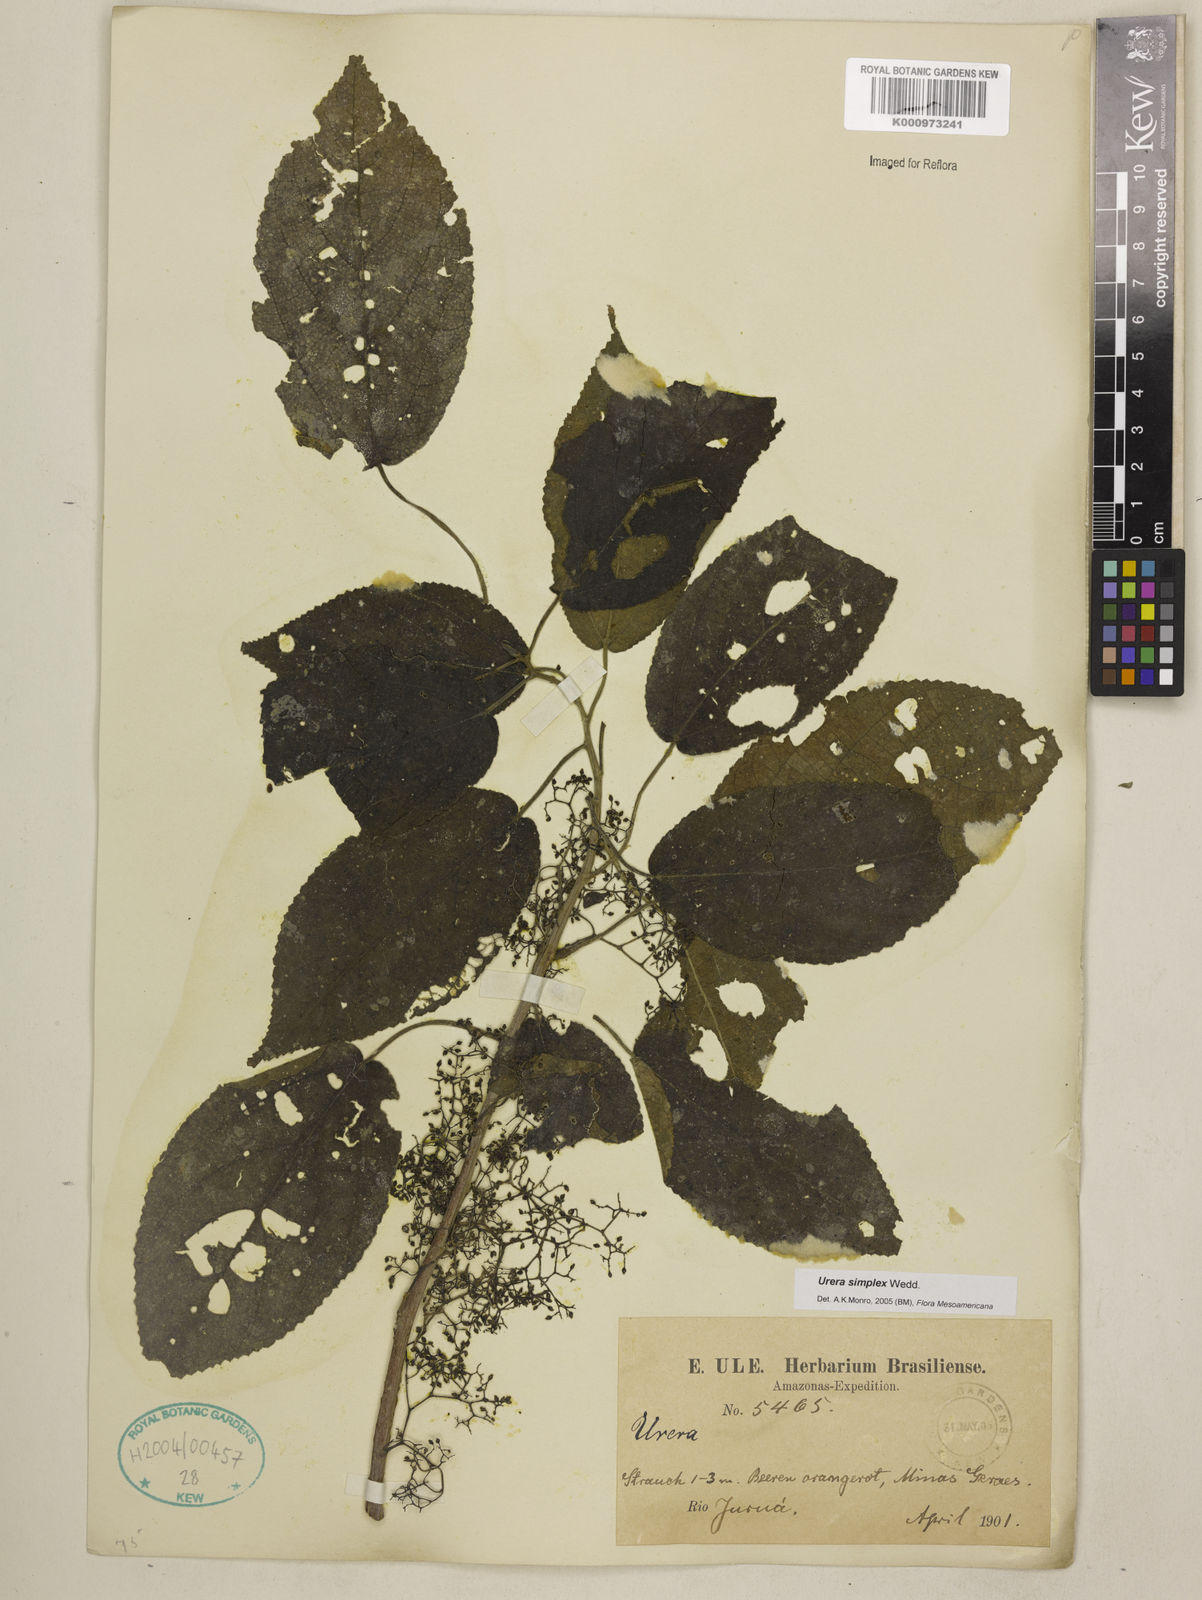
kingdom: Plantae
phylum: Tracheophyta
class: Magnoliopsida
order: Rosales
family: Urticaceae
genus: Urera
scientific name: Urera simplex
